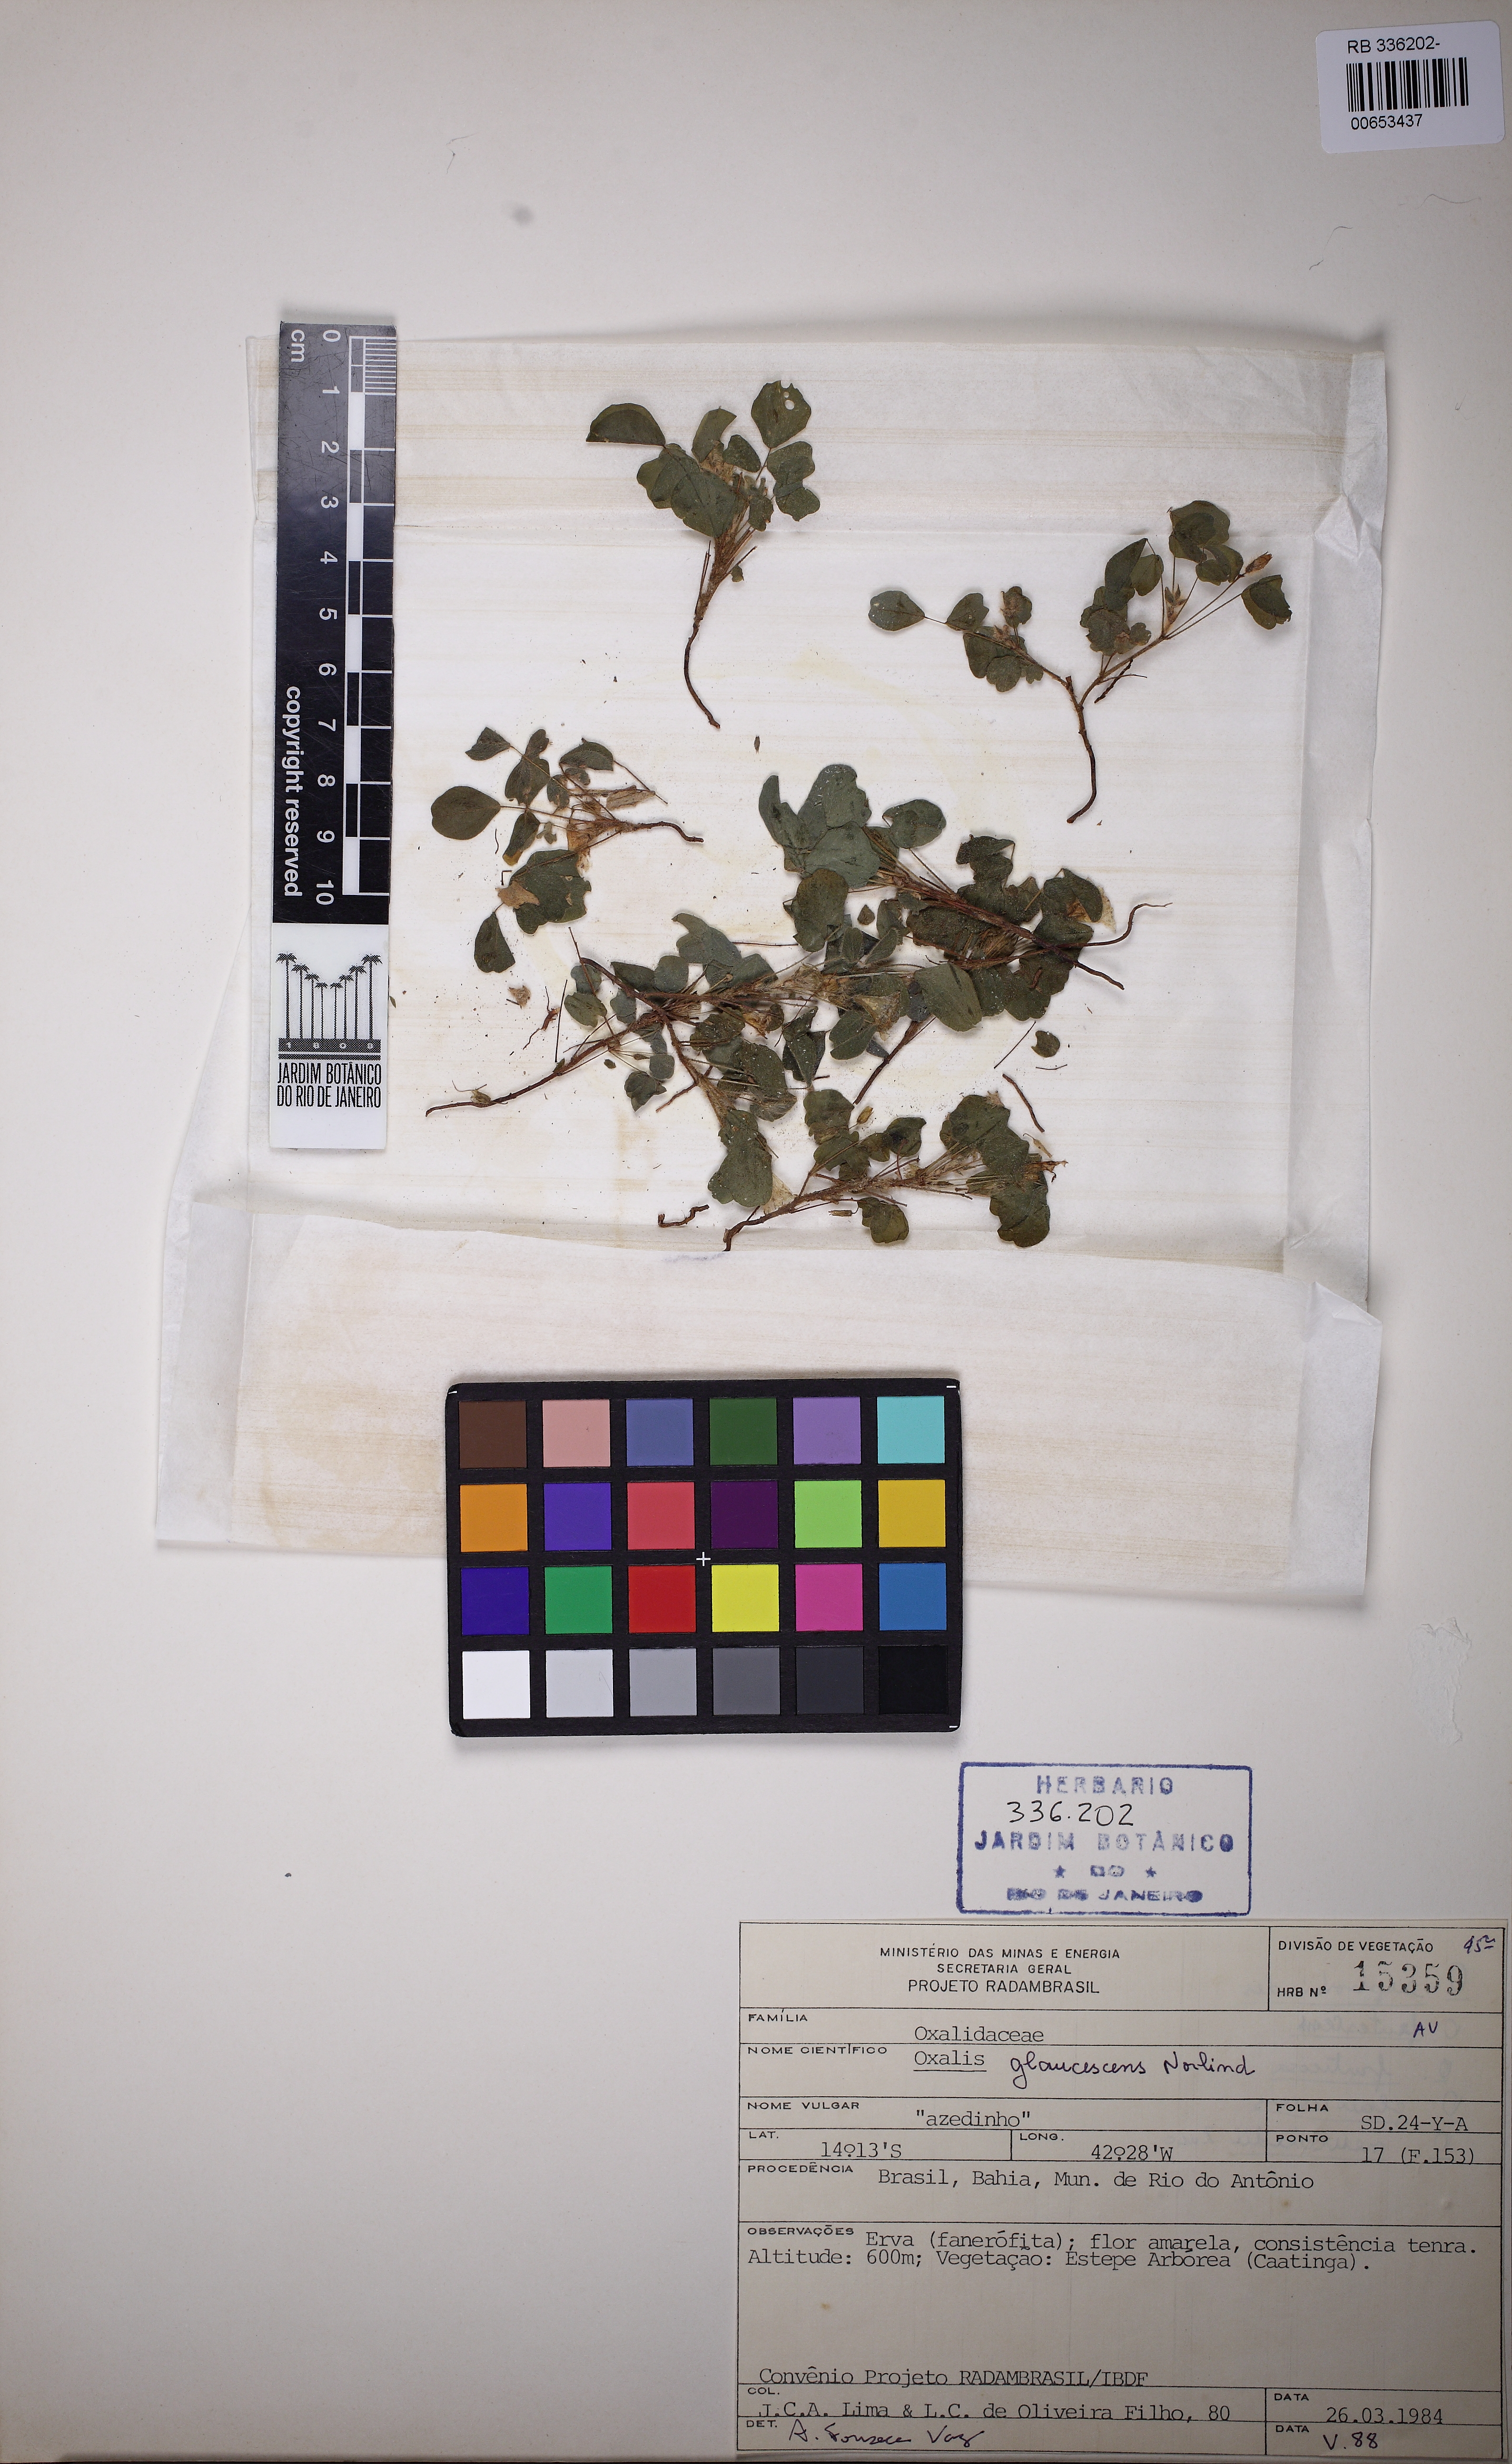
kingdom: Plantae
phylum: Tracheophyta
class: Magnoliopsida
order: Oxalidales
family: Oxalidaceae
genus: Oxalis
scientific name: Oxalis glaucescens
